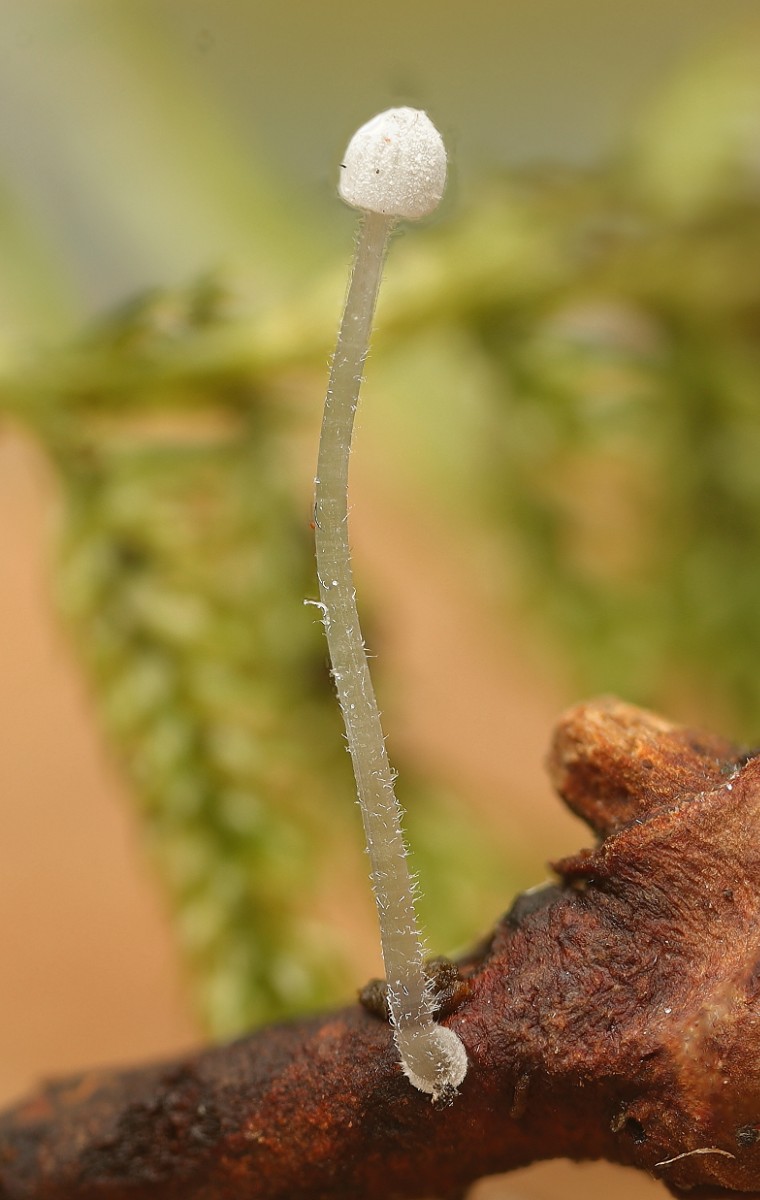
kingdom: Fungi
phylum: Basidiomycota
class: Agaricomycetes
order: Agaricales
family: Mycenaceae
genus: Mycena
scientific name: Mycena tenerrima
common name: pudret huesvamp
